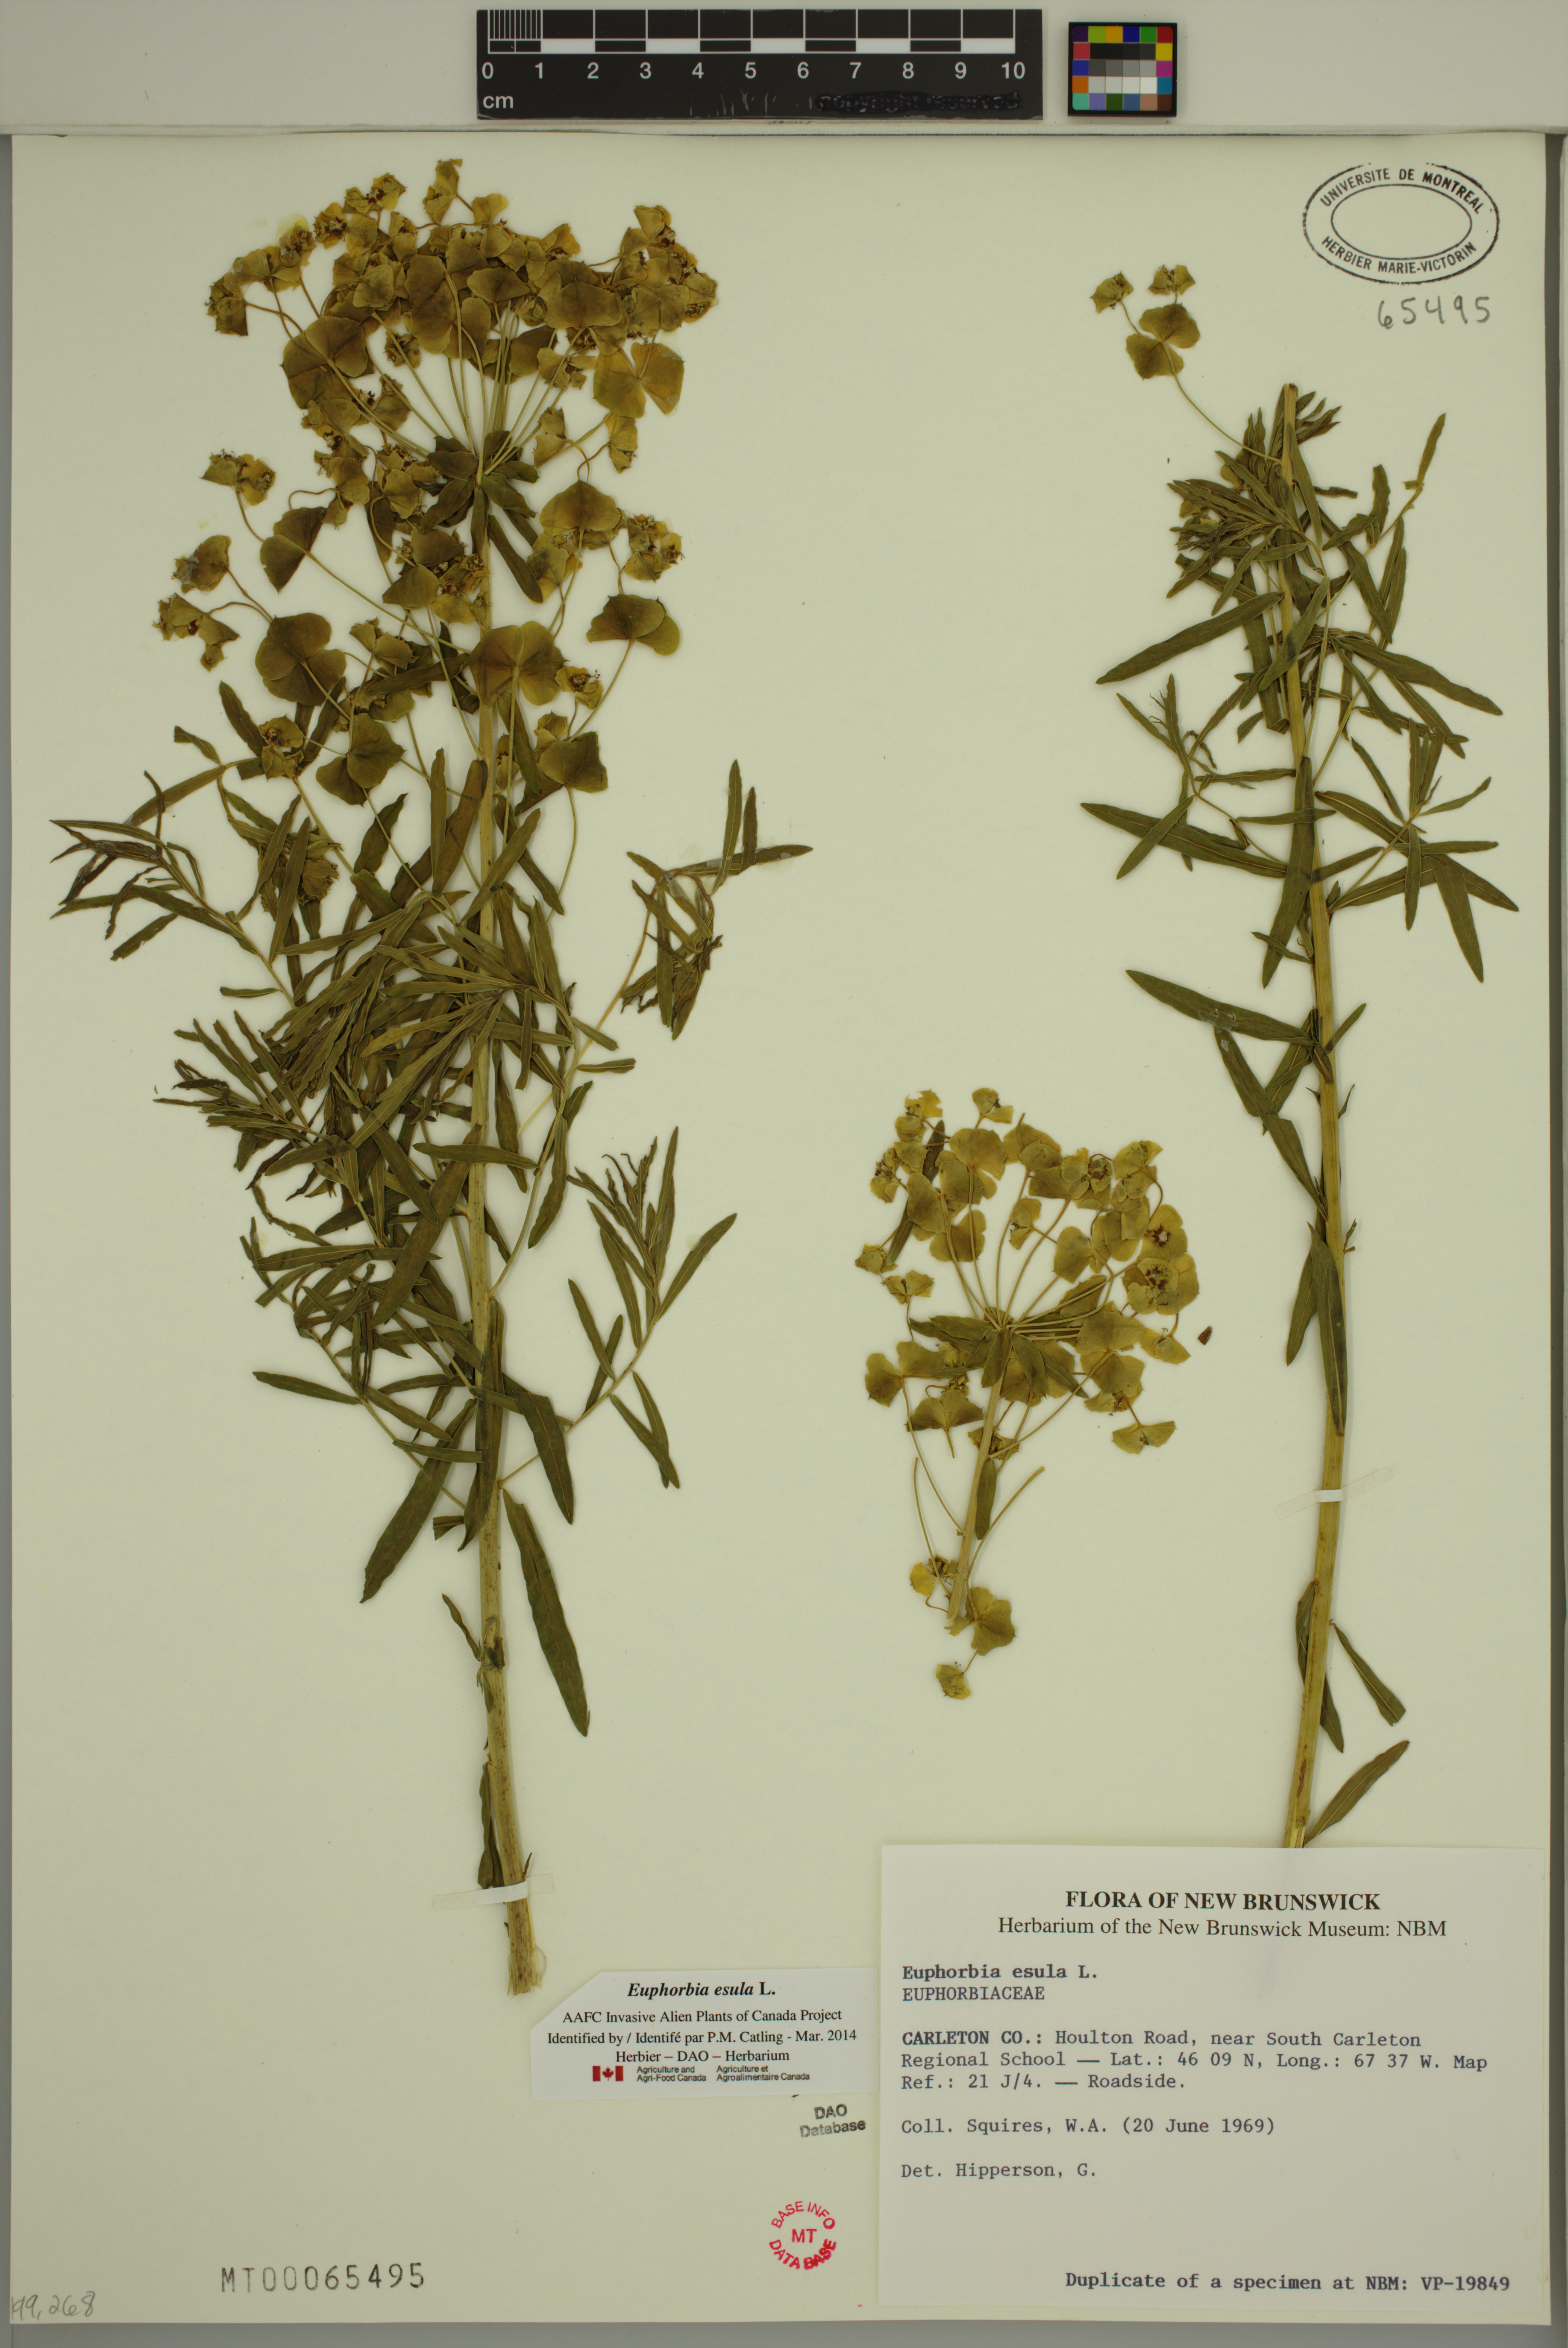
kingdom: Plantae
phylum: Tracheophyta
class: Magnoliopsida
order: Malpighiales
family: Euphorbiaceae
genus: Euphorbia
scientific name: Euphorbia esula
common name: Leafy spurge
